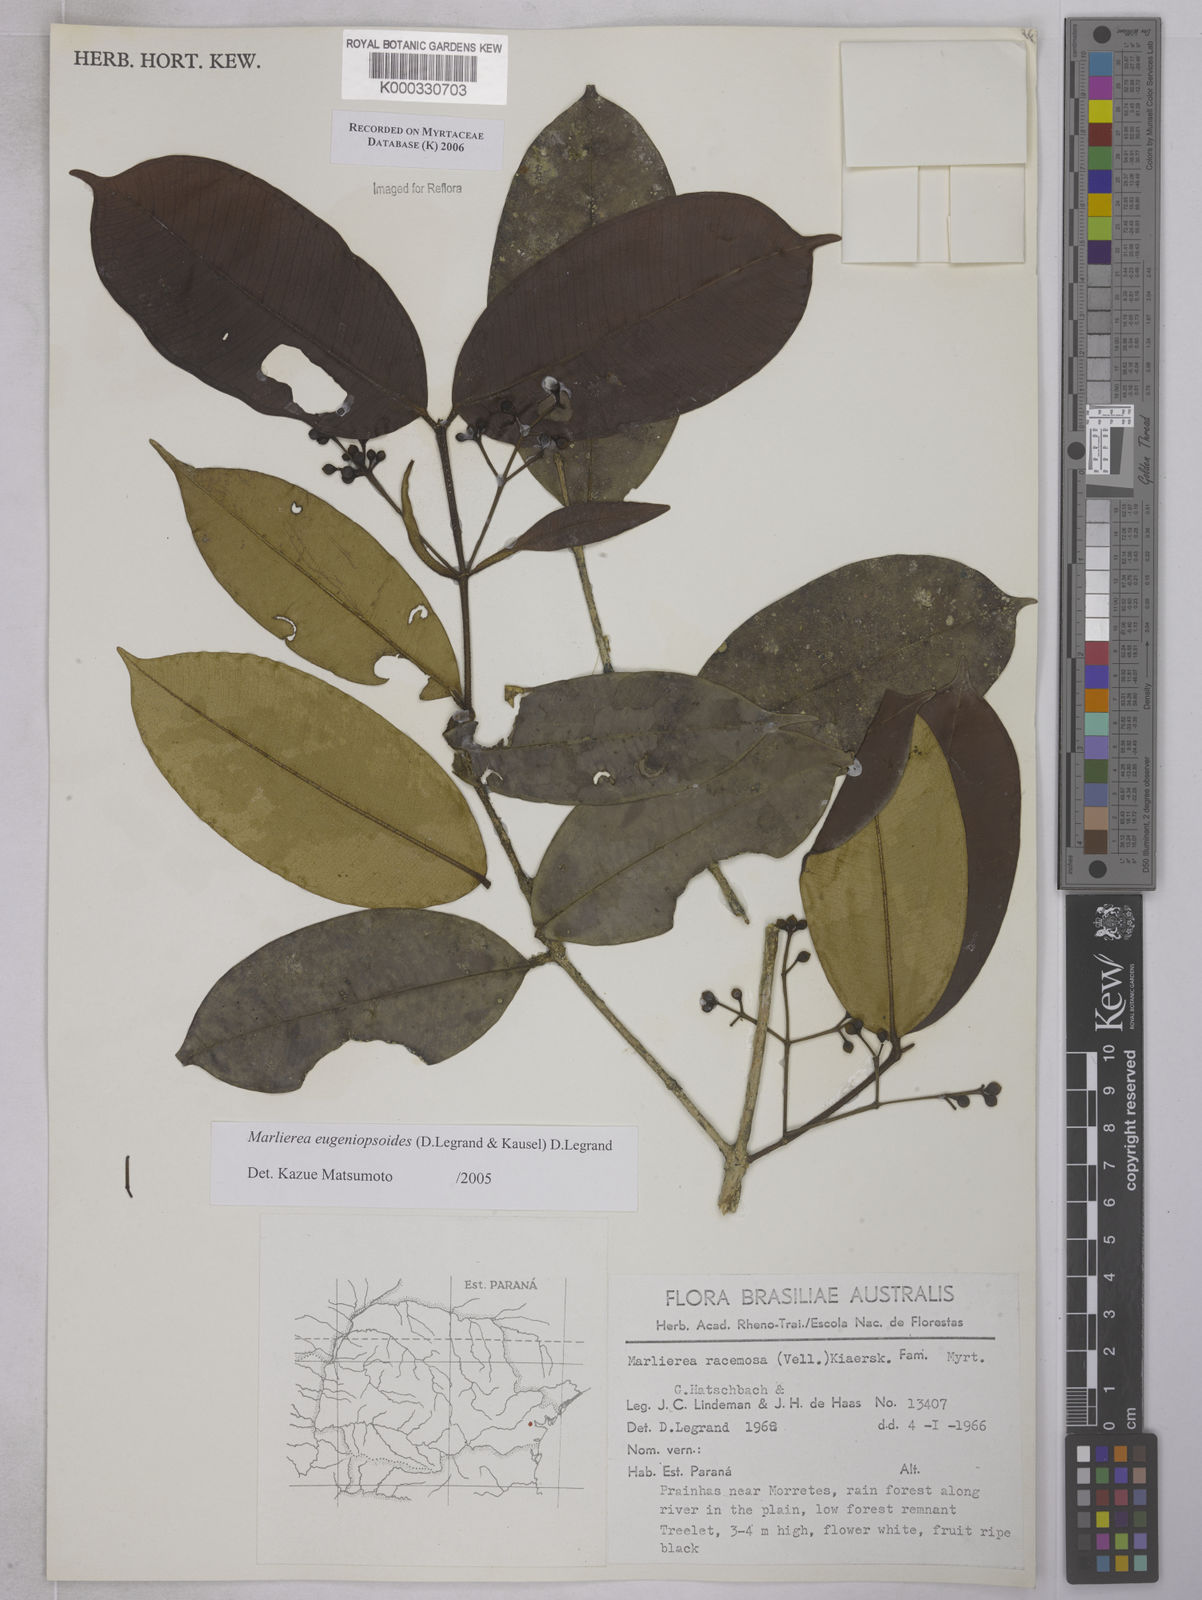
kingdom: Plantae
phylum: Tracheophyta
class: Magnoliopsida
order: Myrtales
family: Myrtaceae
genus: Myrcia
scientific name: Myrcia eugeniopsoides
